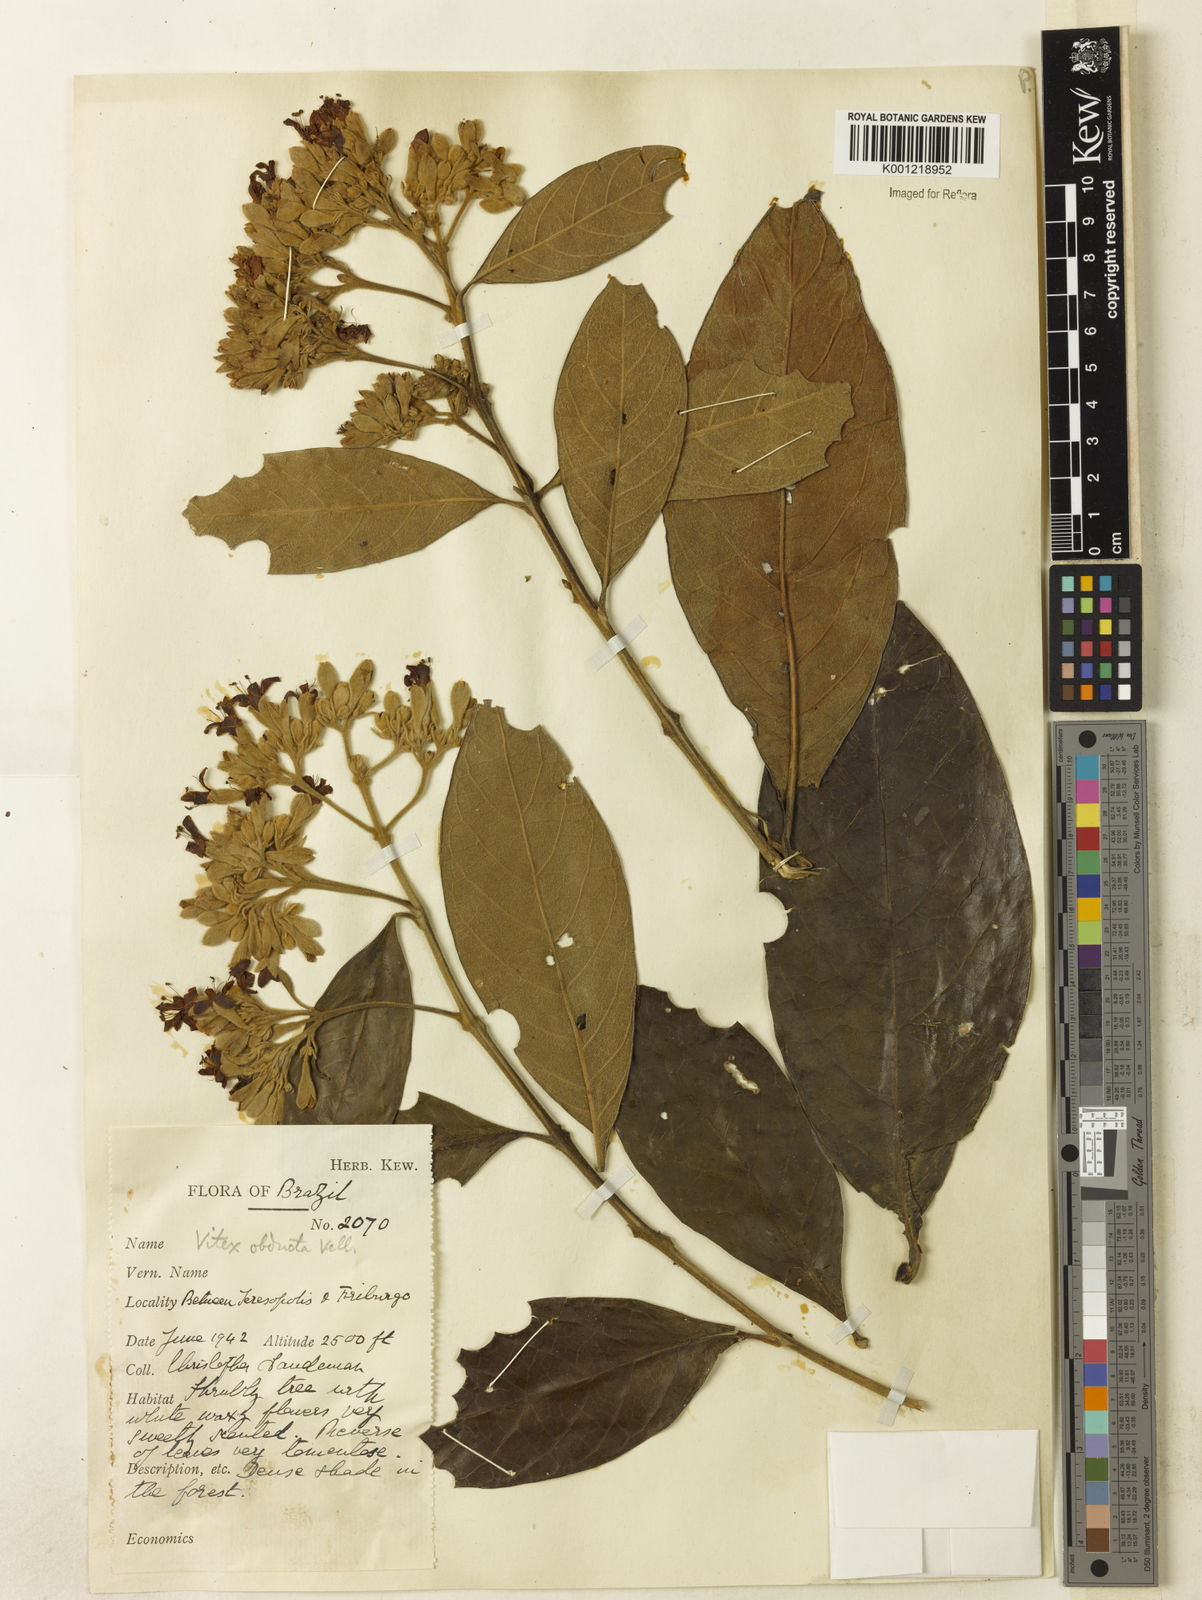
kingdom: Plantae
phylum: Tracheophyta
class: Magnoliopsida
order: Lamiales
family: Lamiaceae
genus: Aegiphila
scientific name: Aegiphila obducta
